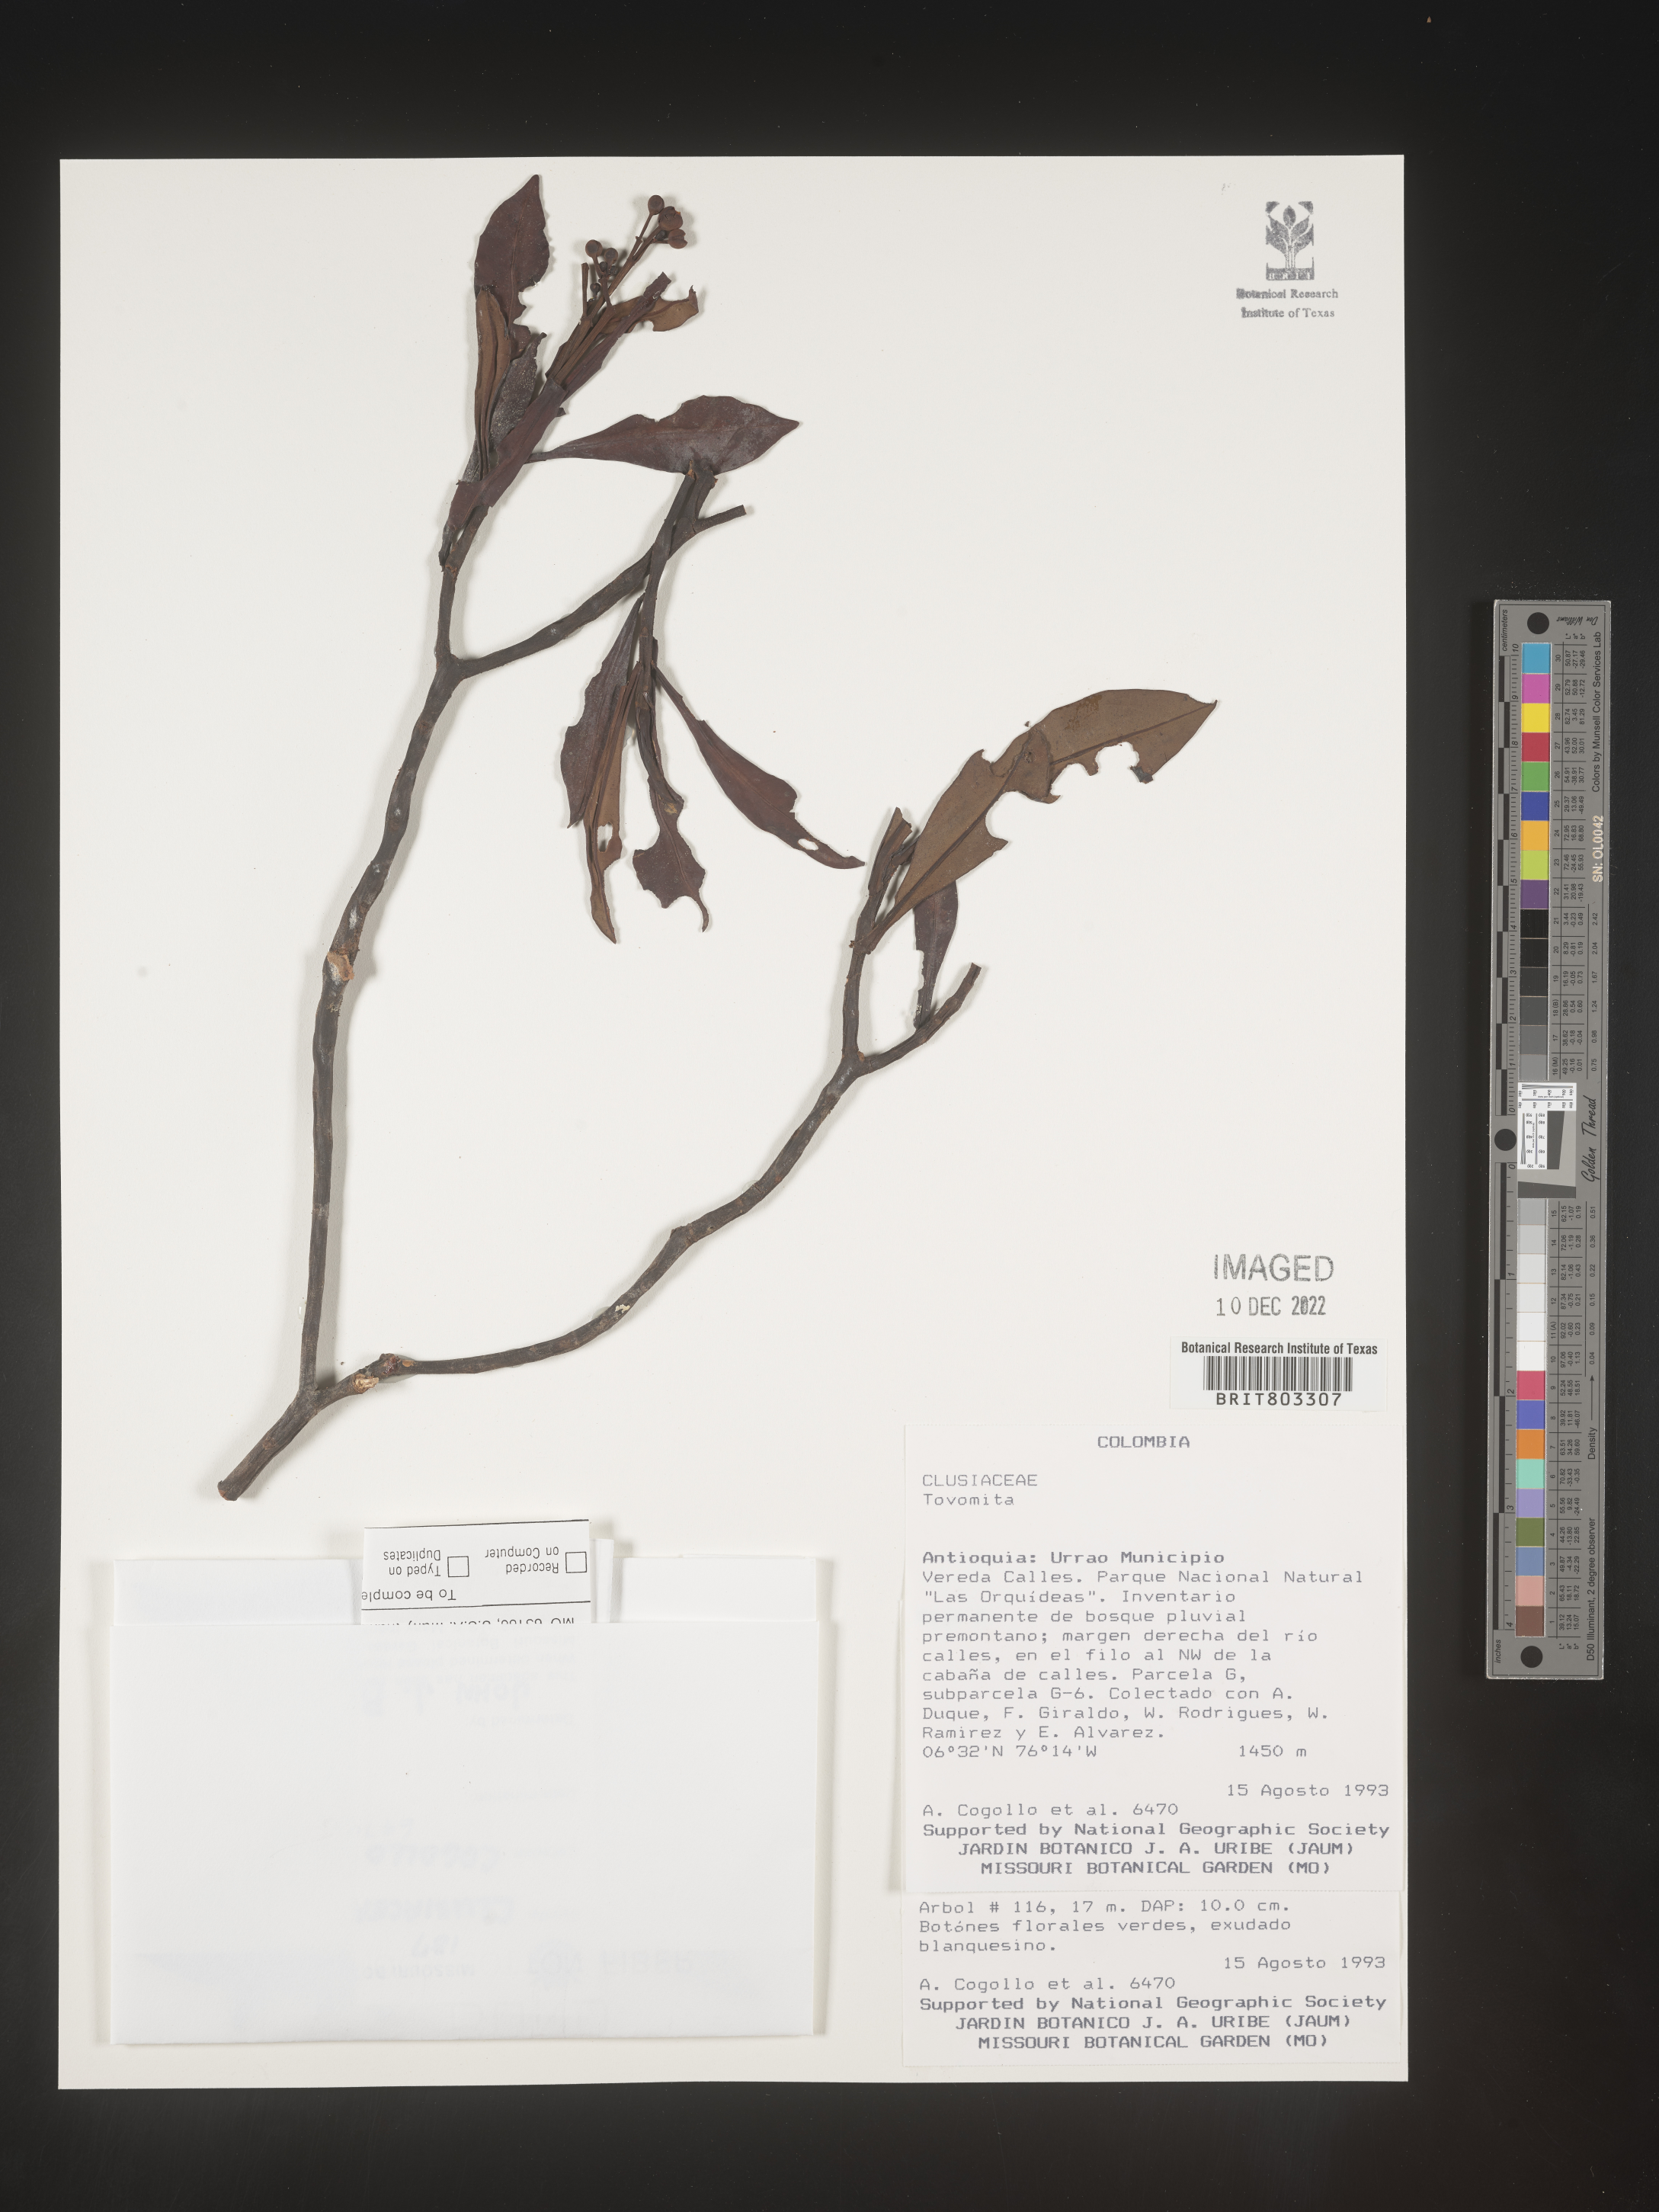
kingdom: Plantae
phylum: Tracheophyta
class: Magnoliopsida
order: Malpighiales
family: Clusiaceae
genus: Tovomita
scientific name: Tovomita
